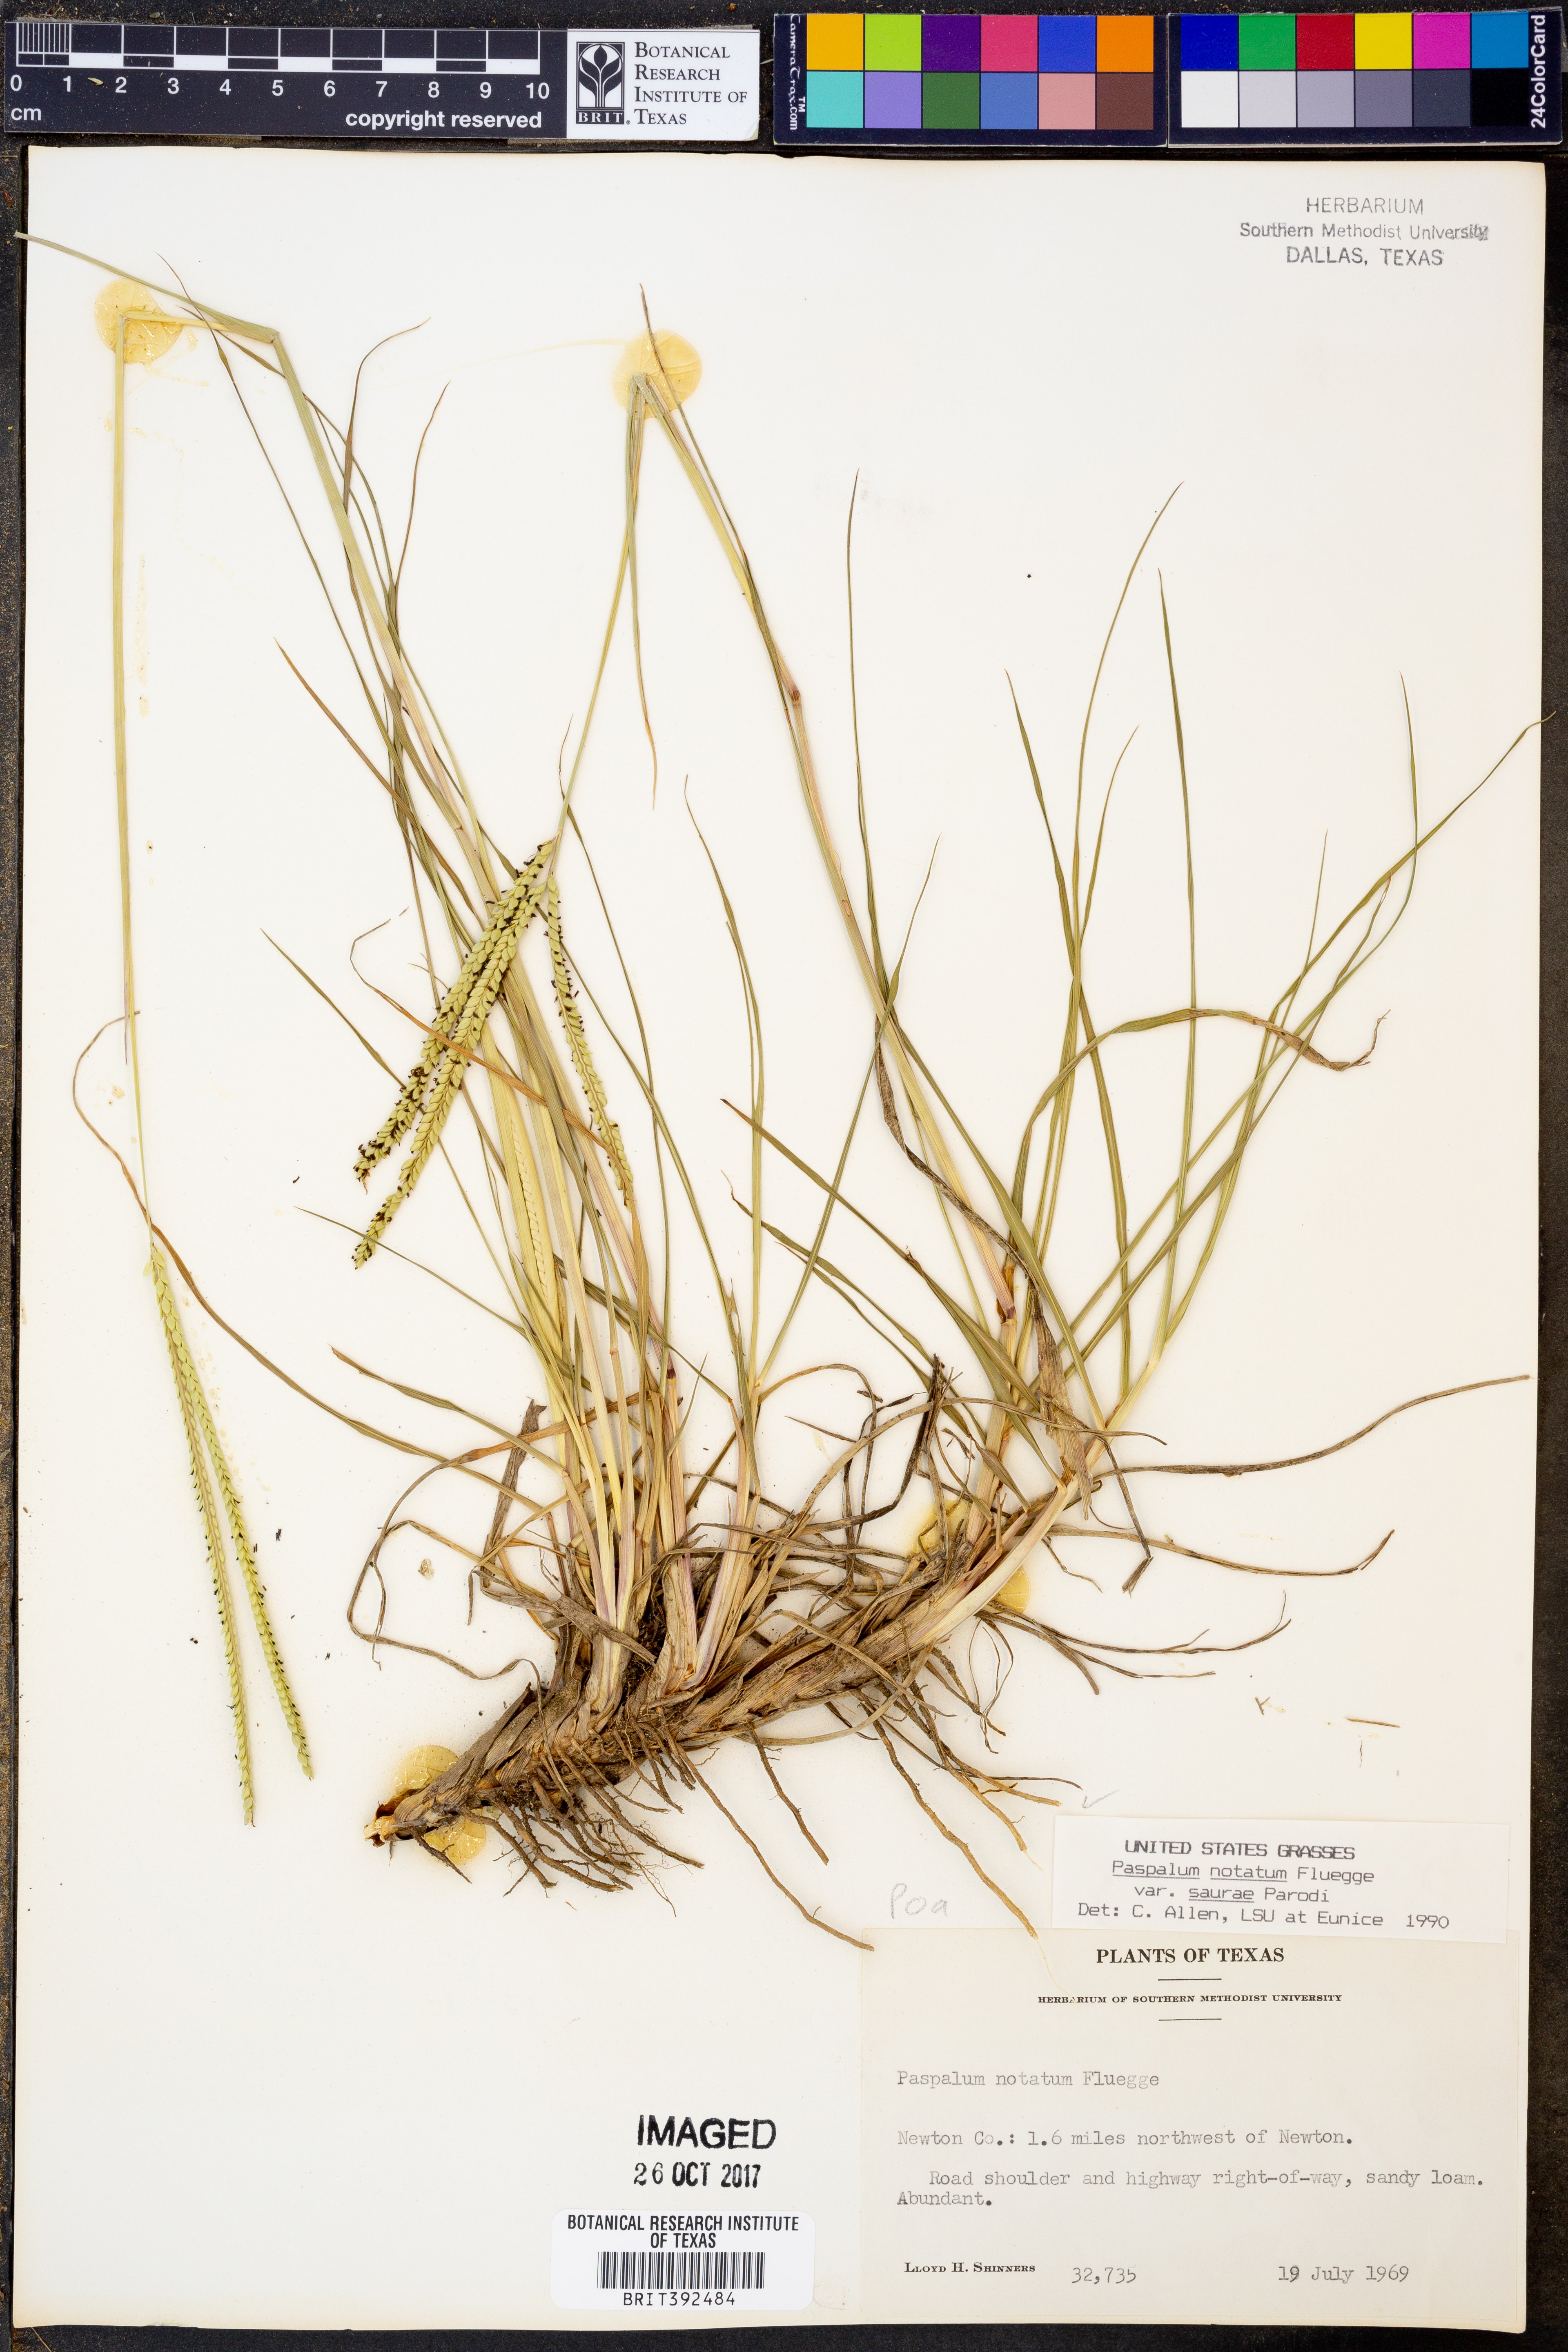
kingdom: Plantae
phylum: Tracheophyta
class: Liliopsida
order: Poales
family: Poaceae
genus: Paspalum
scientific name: Paspalum saurae
